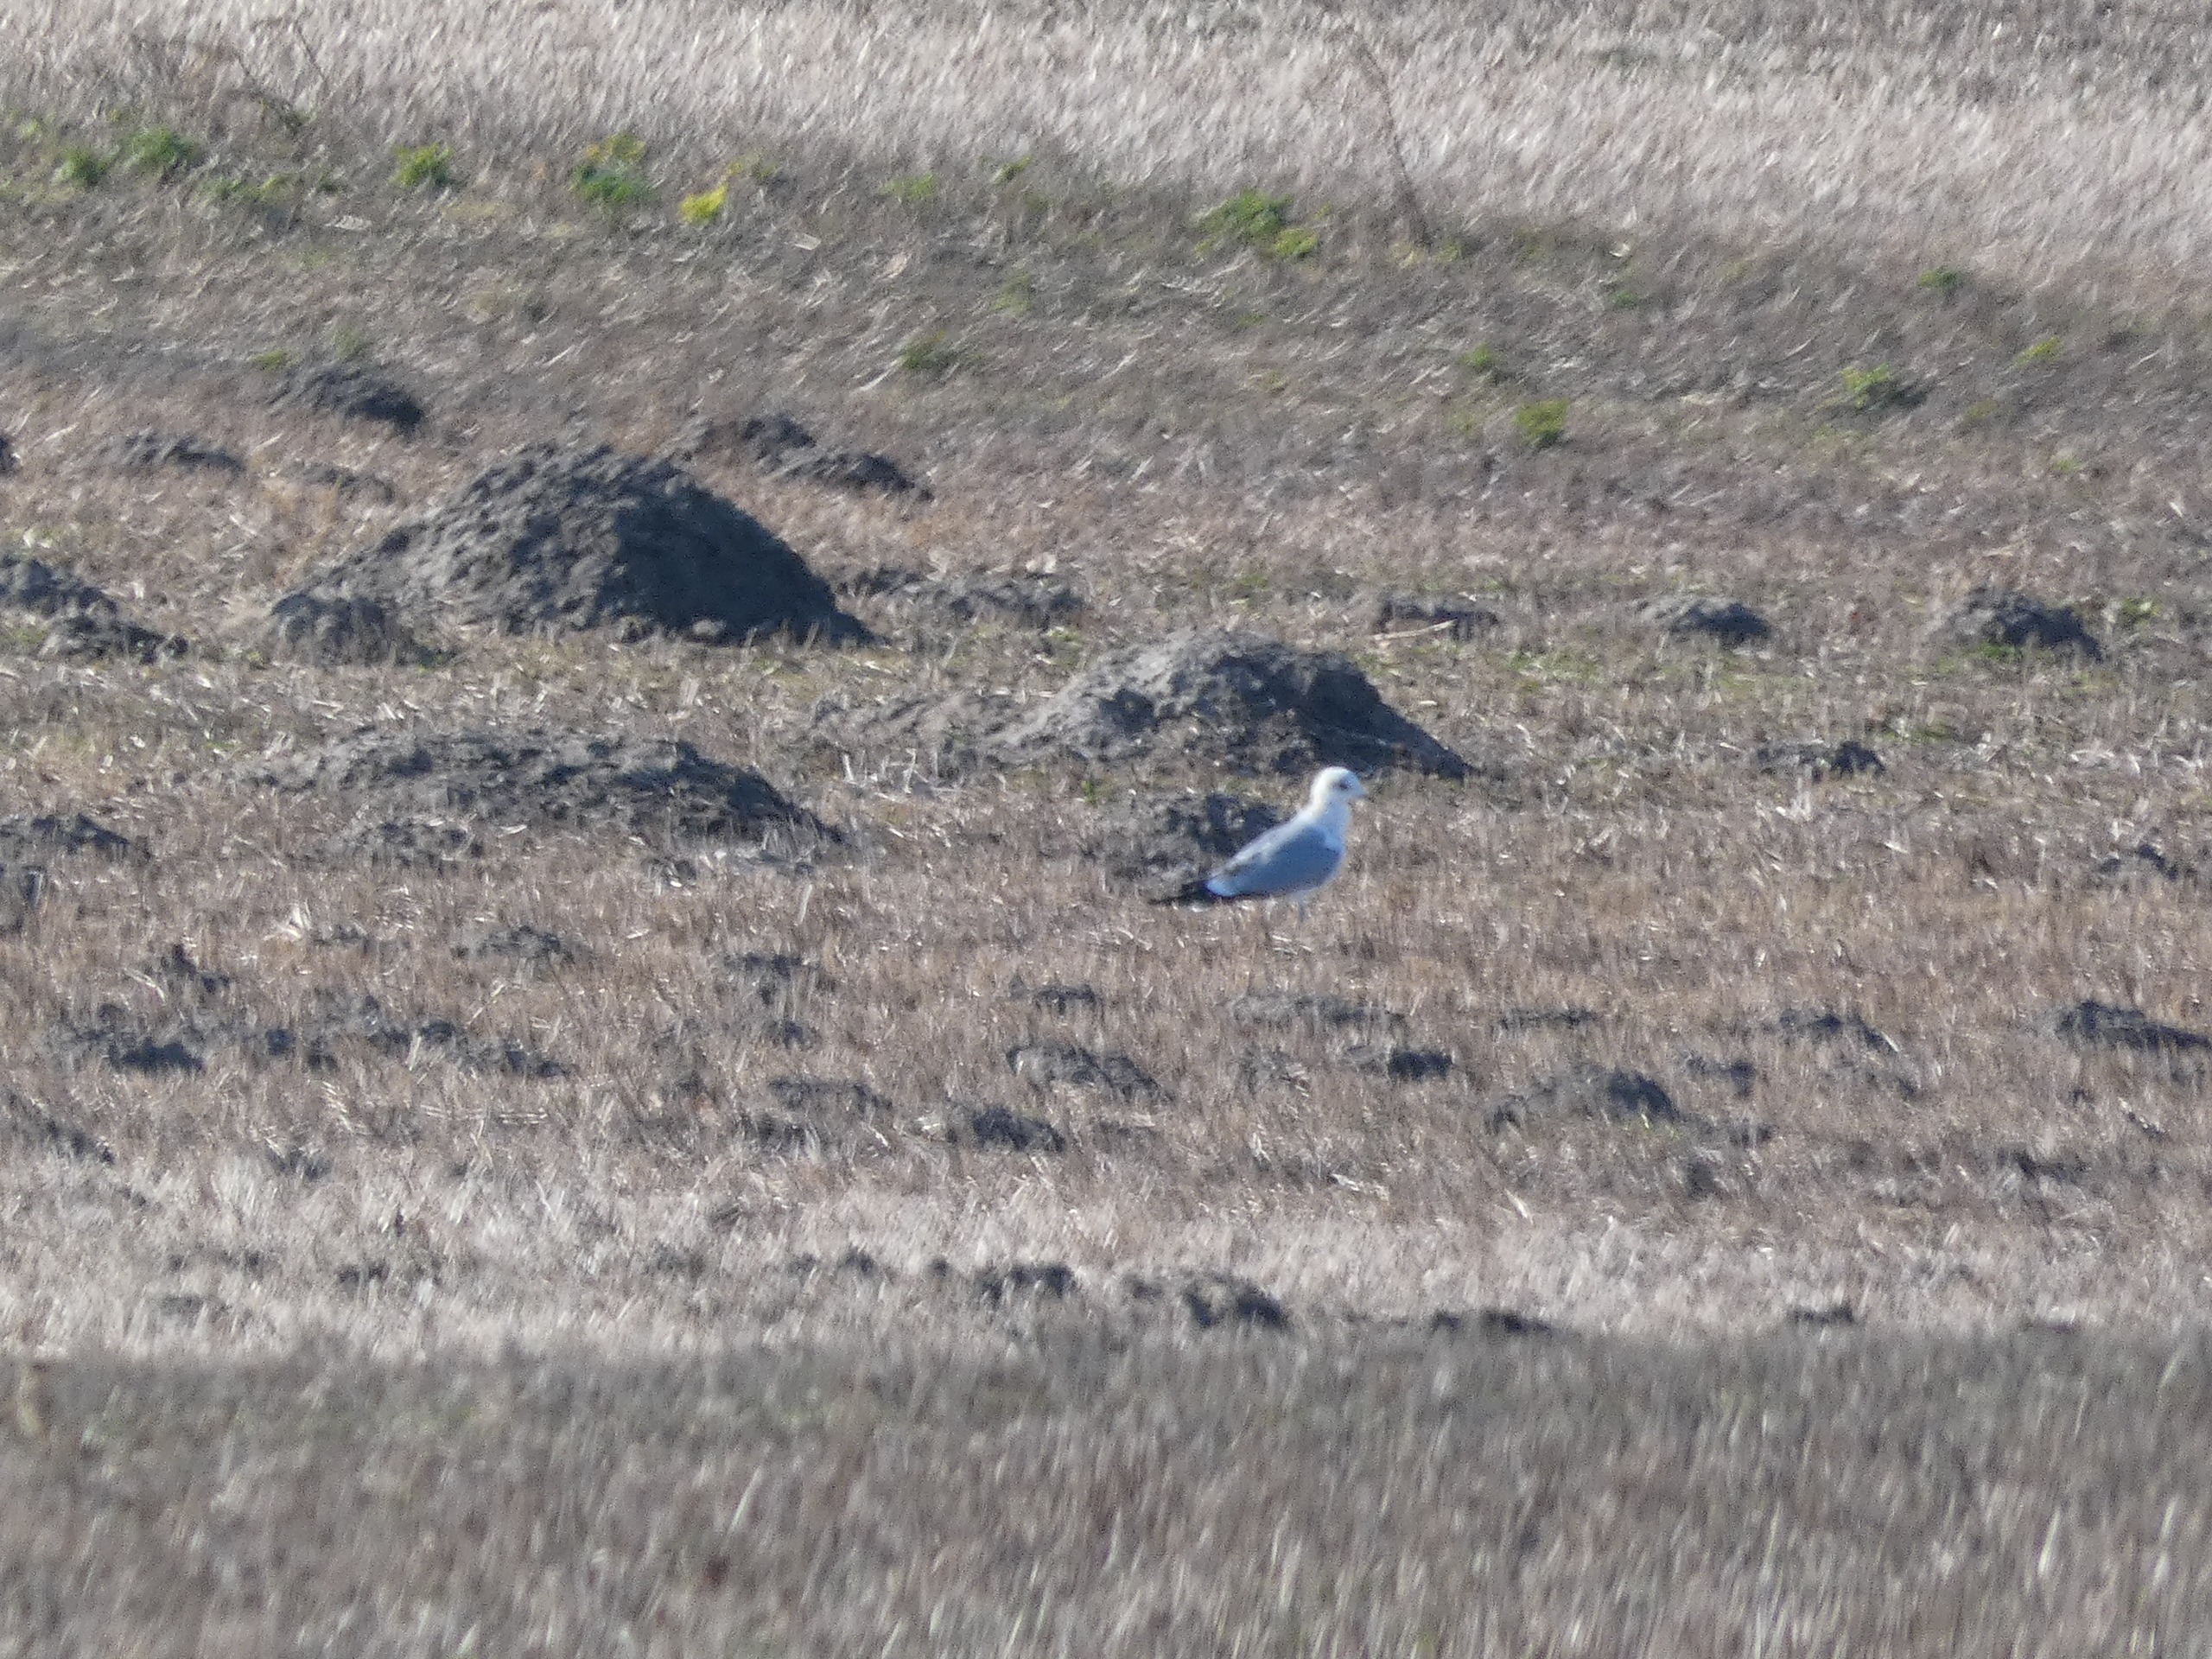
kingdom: Animalia
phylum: Chordata
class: Aves
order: Charadriiformes
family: Laridae
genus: Larus
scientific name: Larus canus
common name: Stormmåge
